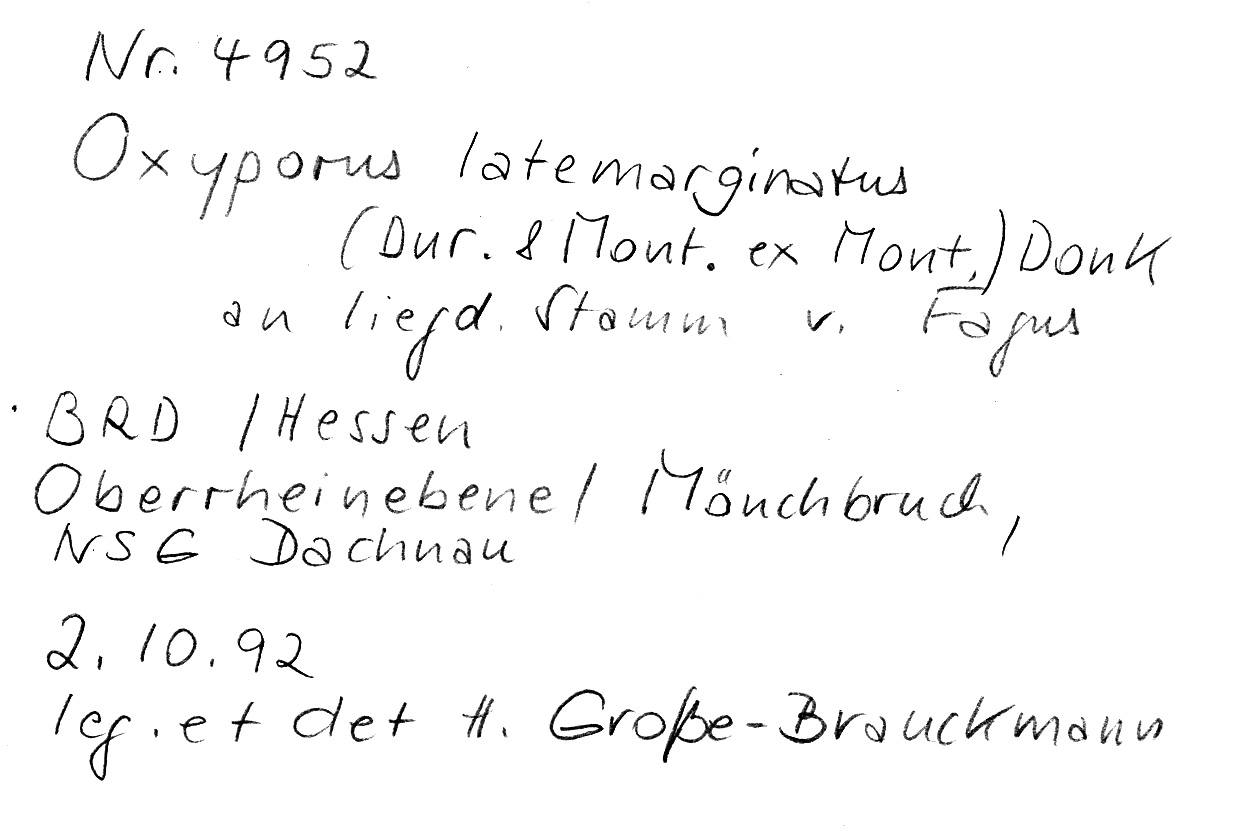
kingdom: Fungi
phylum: Basidiomycota
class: Agaricomycetes
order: Polyporales
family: Irpicaceae
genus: Irpex
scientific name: Irpex latemarginatus
